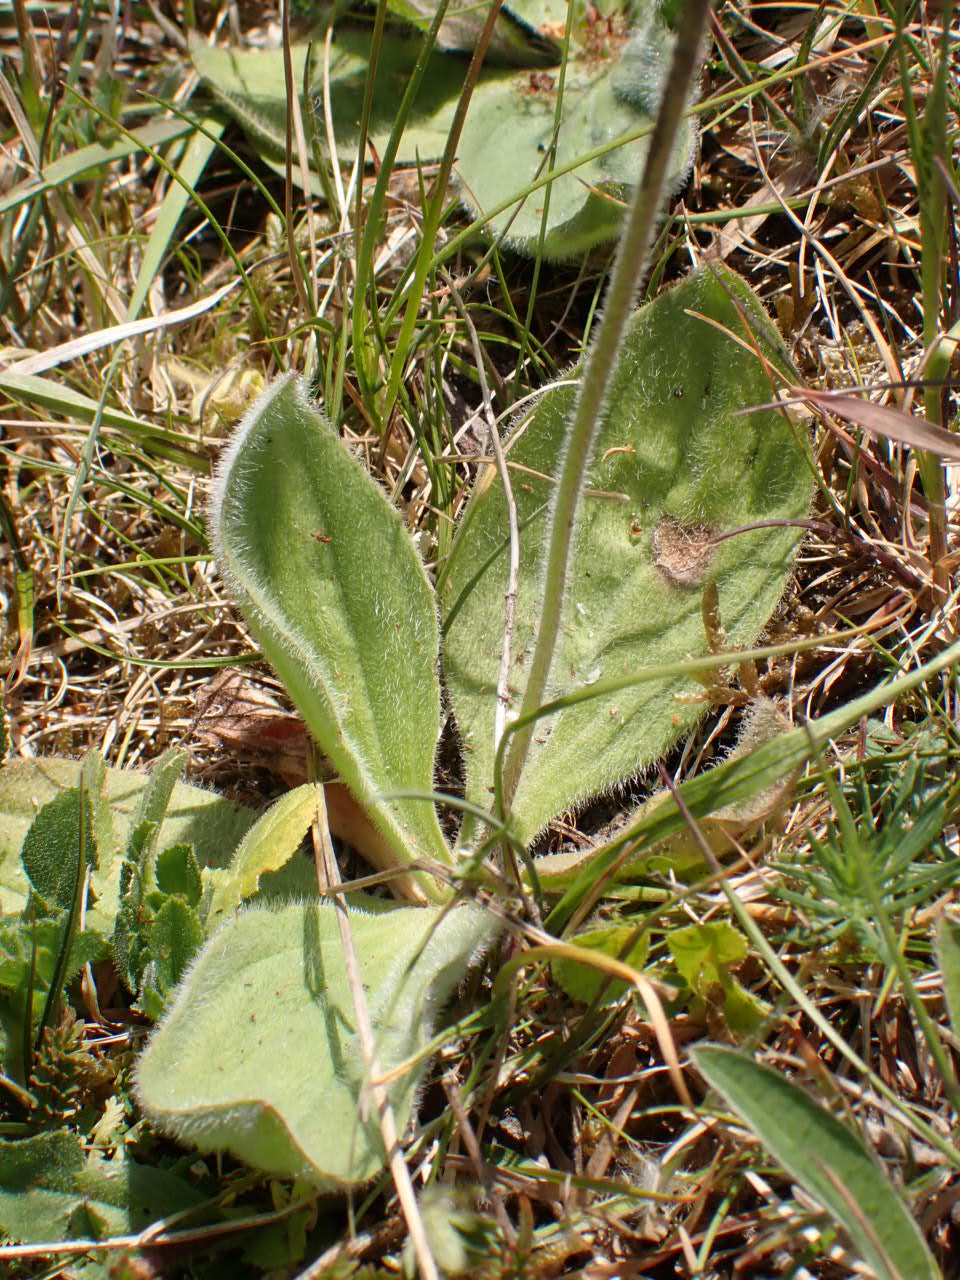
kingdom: Plantae
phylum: Tracheophyta
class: Magnoliopsida
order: Lamiales
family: Plantaginaceae
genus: Plantago
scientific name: Plantago media
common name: Dunet vejbred
